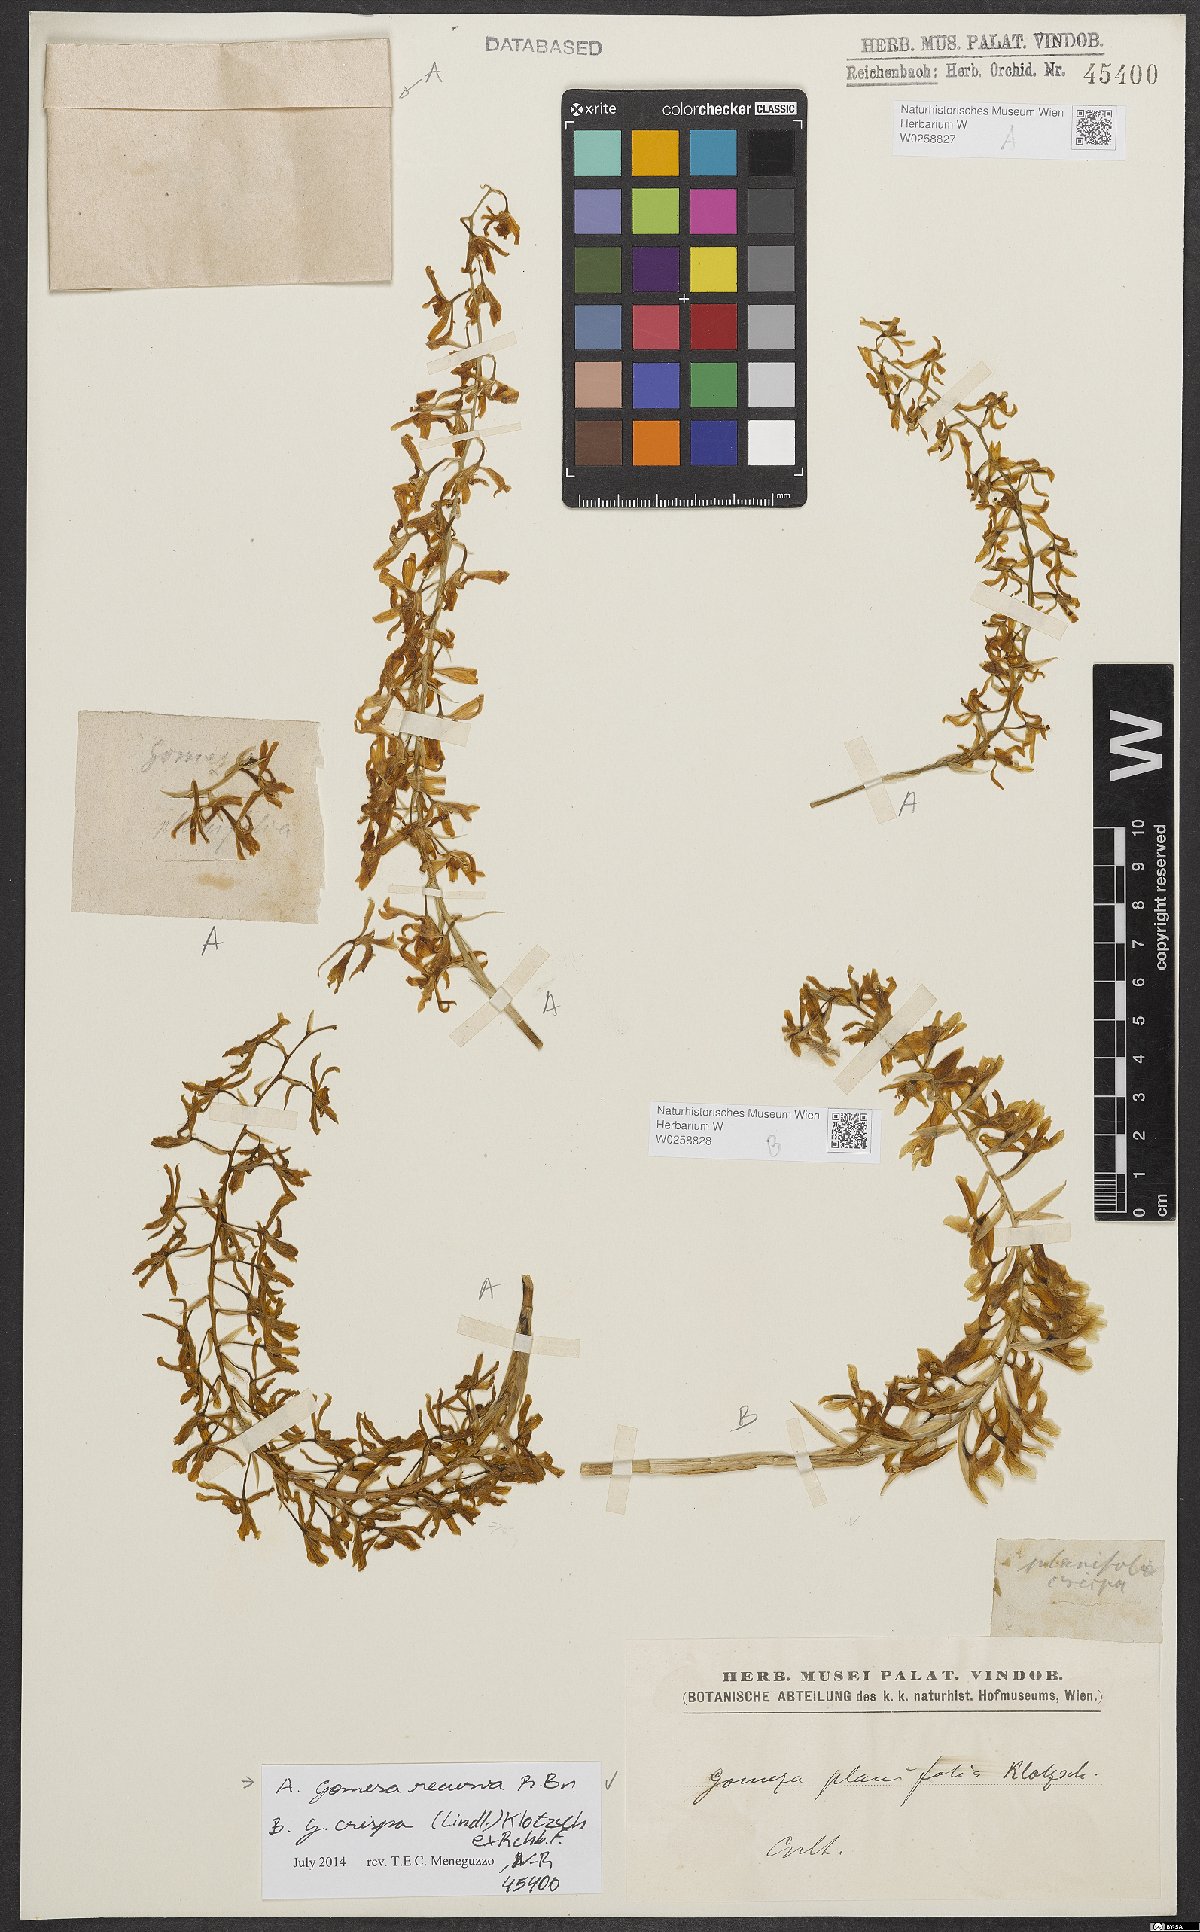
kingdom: Plantae
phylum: Tracheophyta
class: Liliopsida
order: Asparagales
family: Orchidaceae
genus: Gomesa
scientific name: Gomesa crispa
